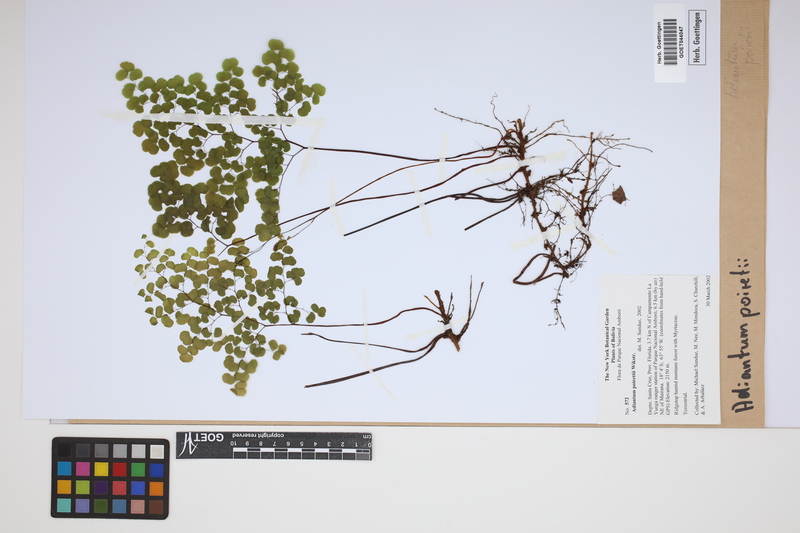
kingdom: Plantae
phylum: Tracheophyta
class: Polypodiopsida
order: Polypodiales
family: Pteridaceae
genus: Adiantum
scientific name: Adiantum poiretii
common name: Mexican maidenhair
